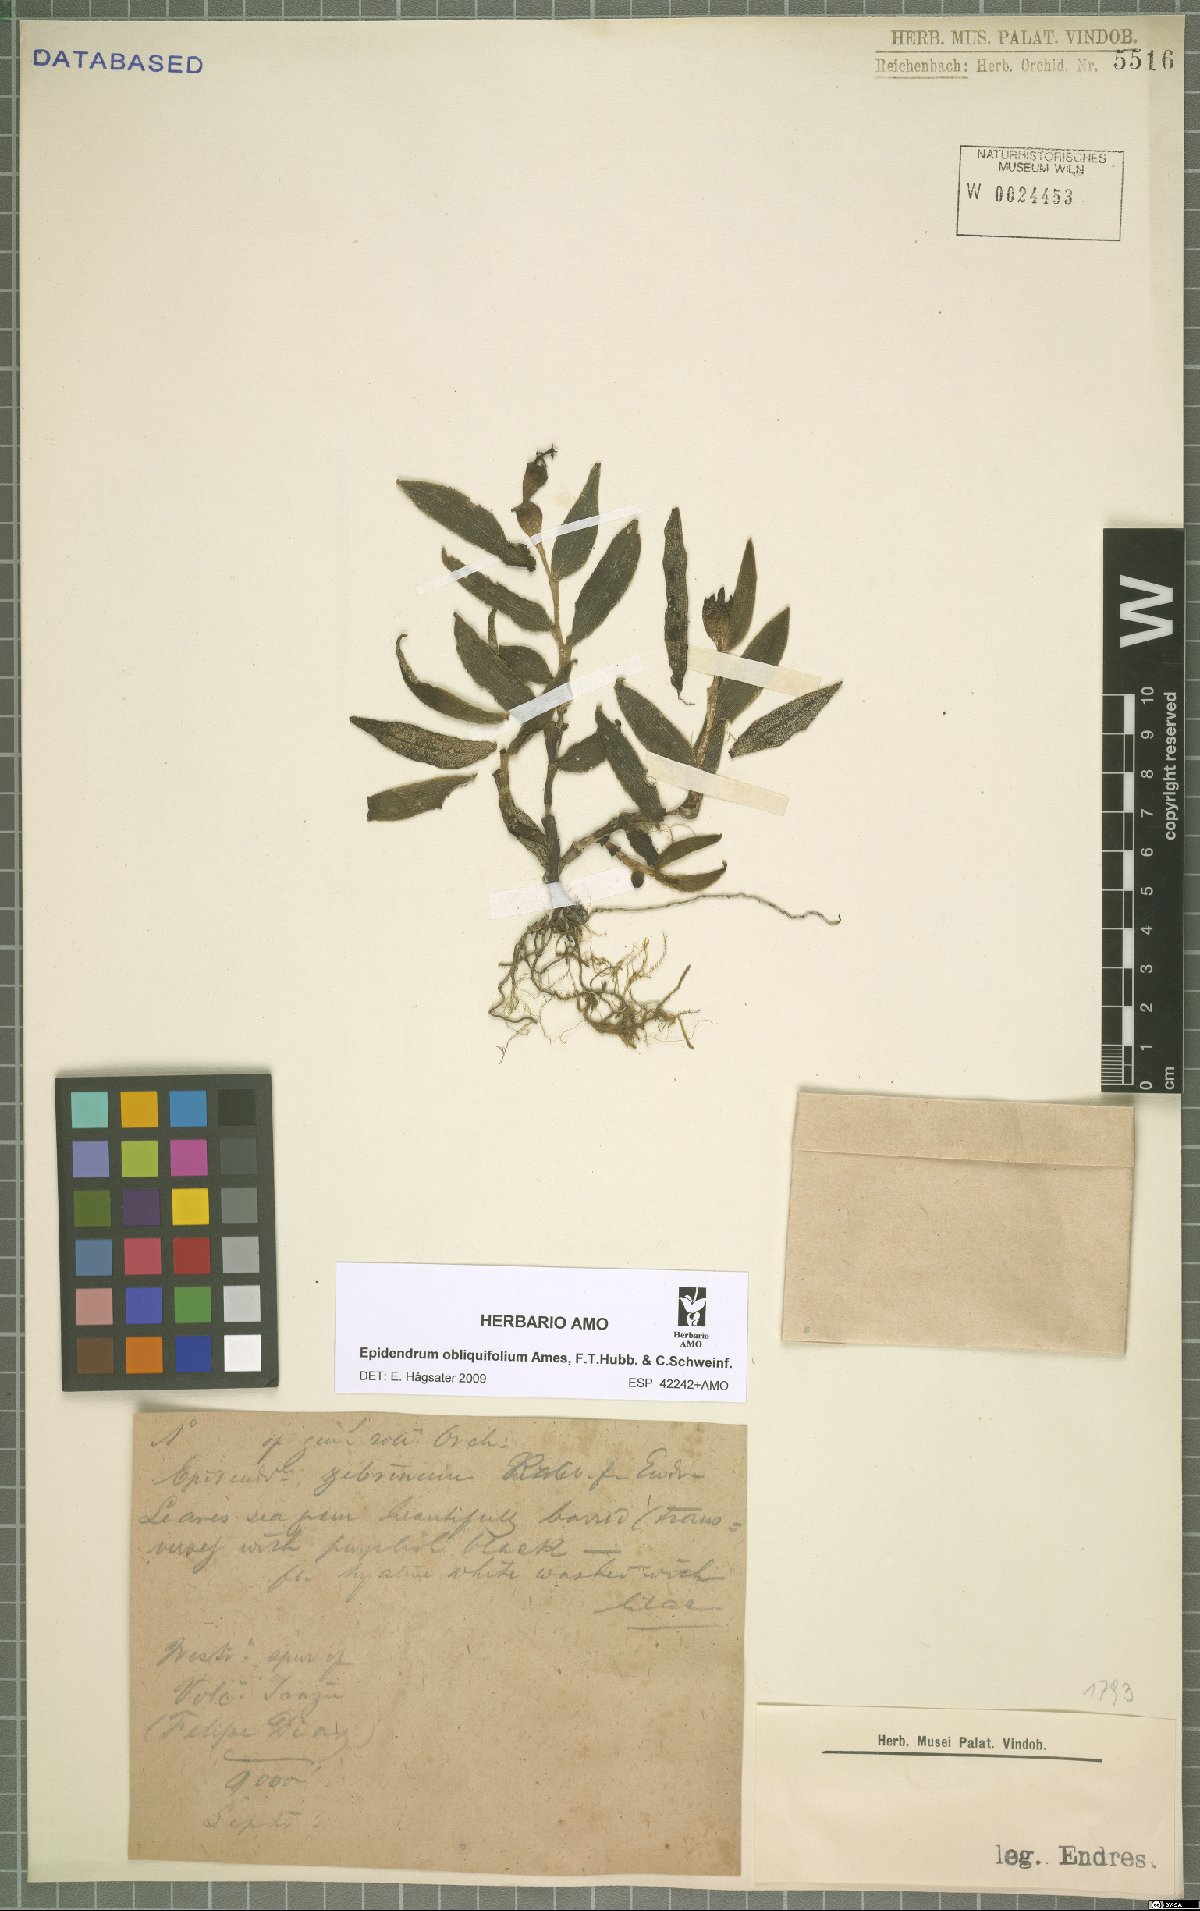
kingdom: Plantae
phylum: Tracheophyta
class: Liliopsida
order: Asparagales
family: Orchidaceae
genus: Epidendrum
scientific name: Epidendrum obliquifolium
